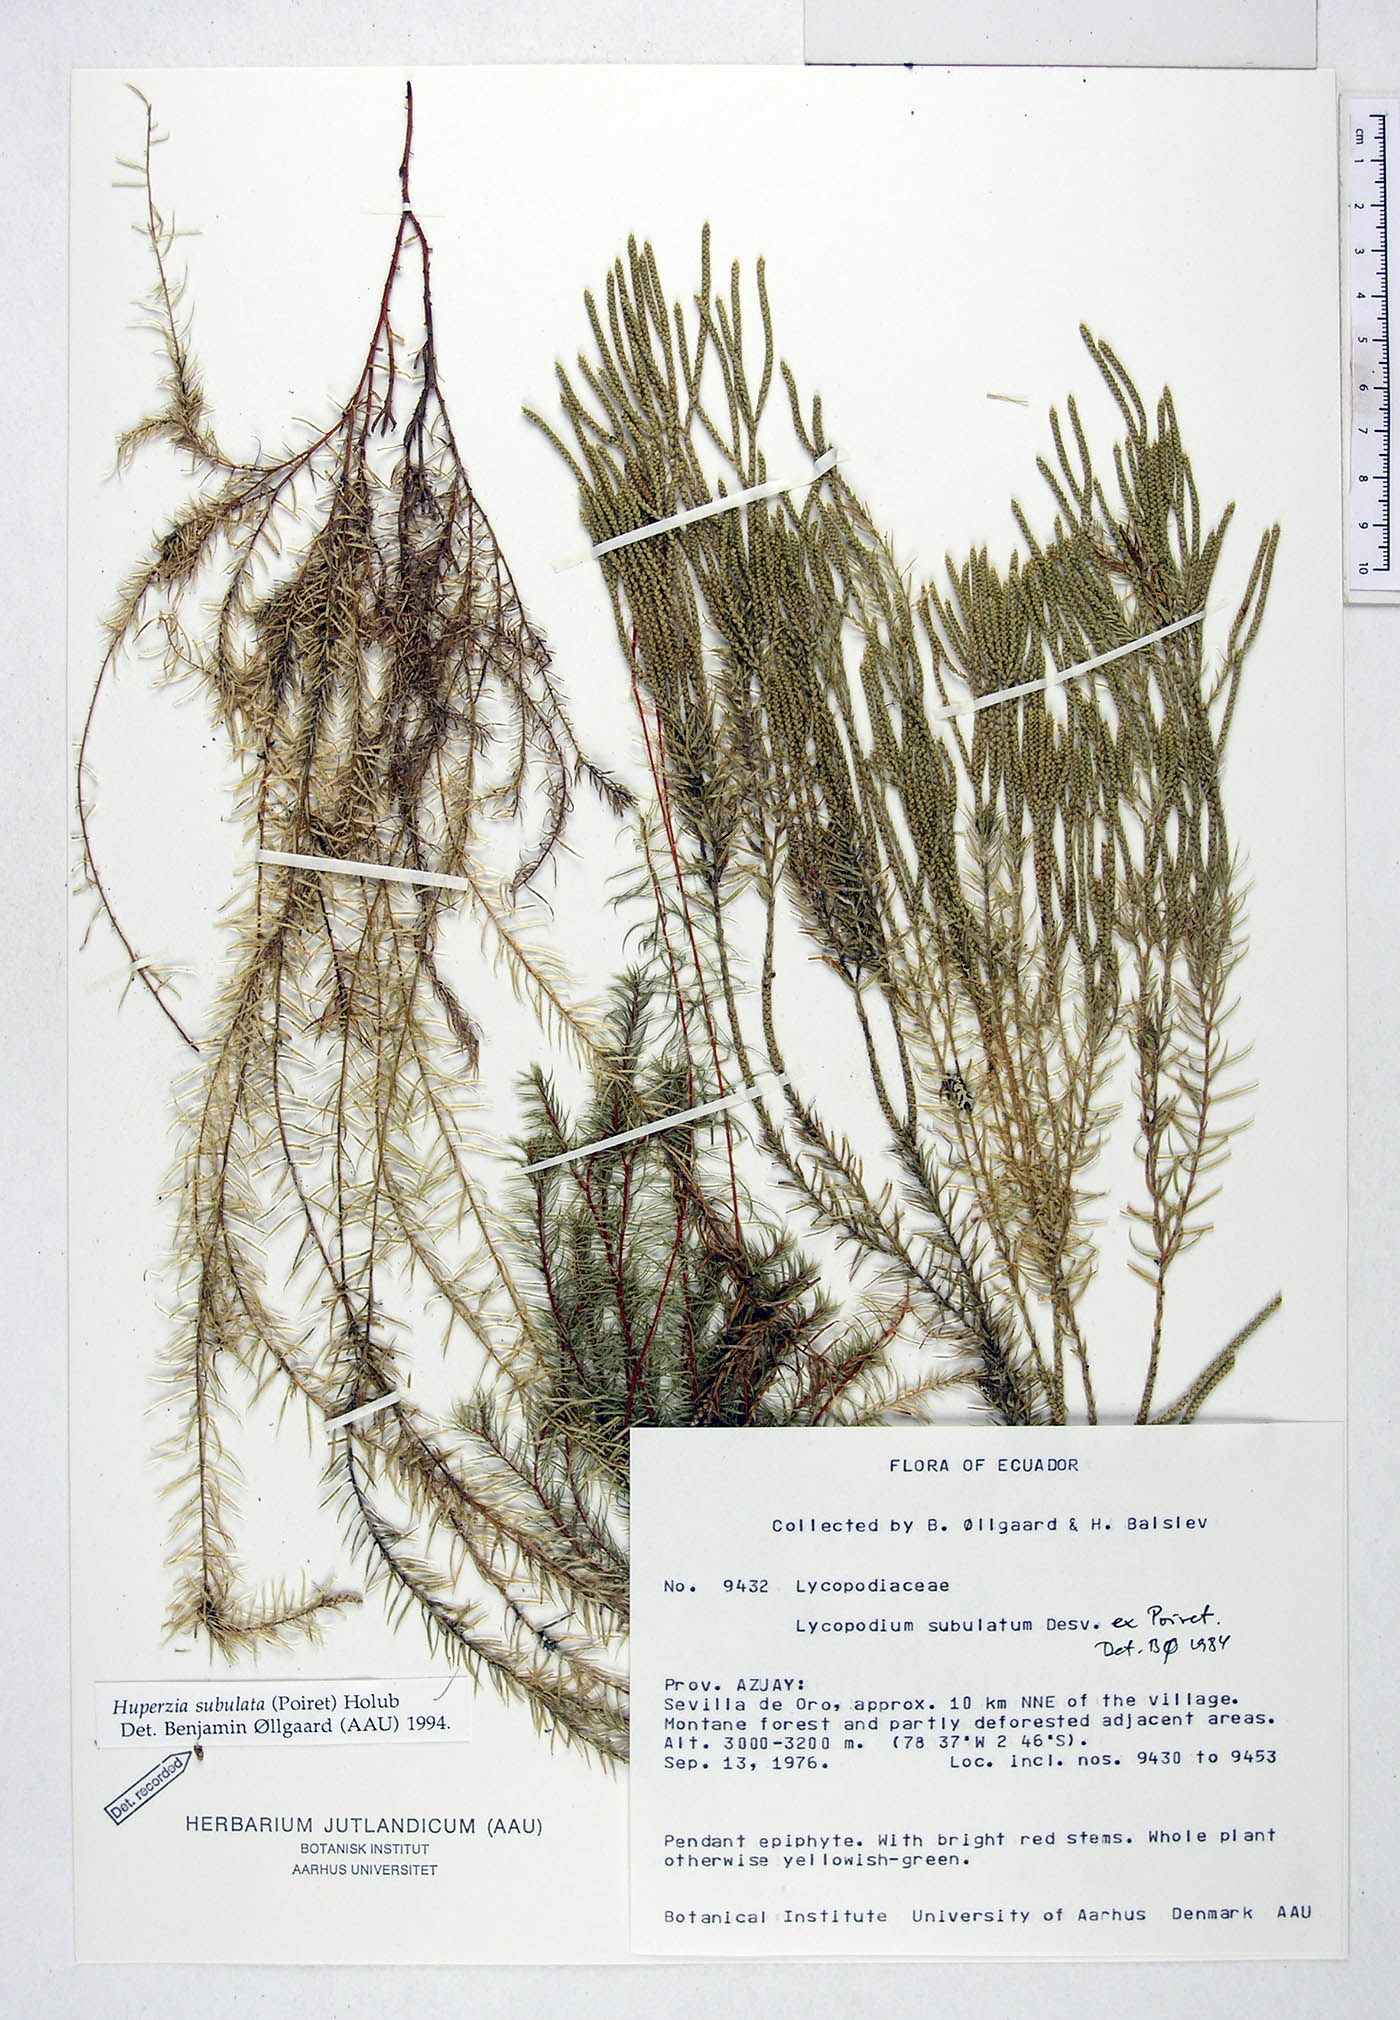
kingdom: Plantae
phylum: Tracheophyta
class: Lycopodiopsida
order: Lycopodiales
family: Lycopodiaceae
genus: Phlegmariurus
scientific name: Phlegmariurus subulatus
